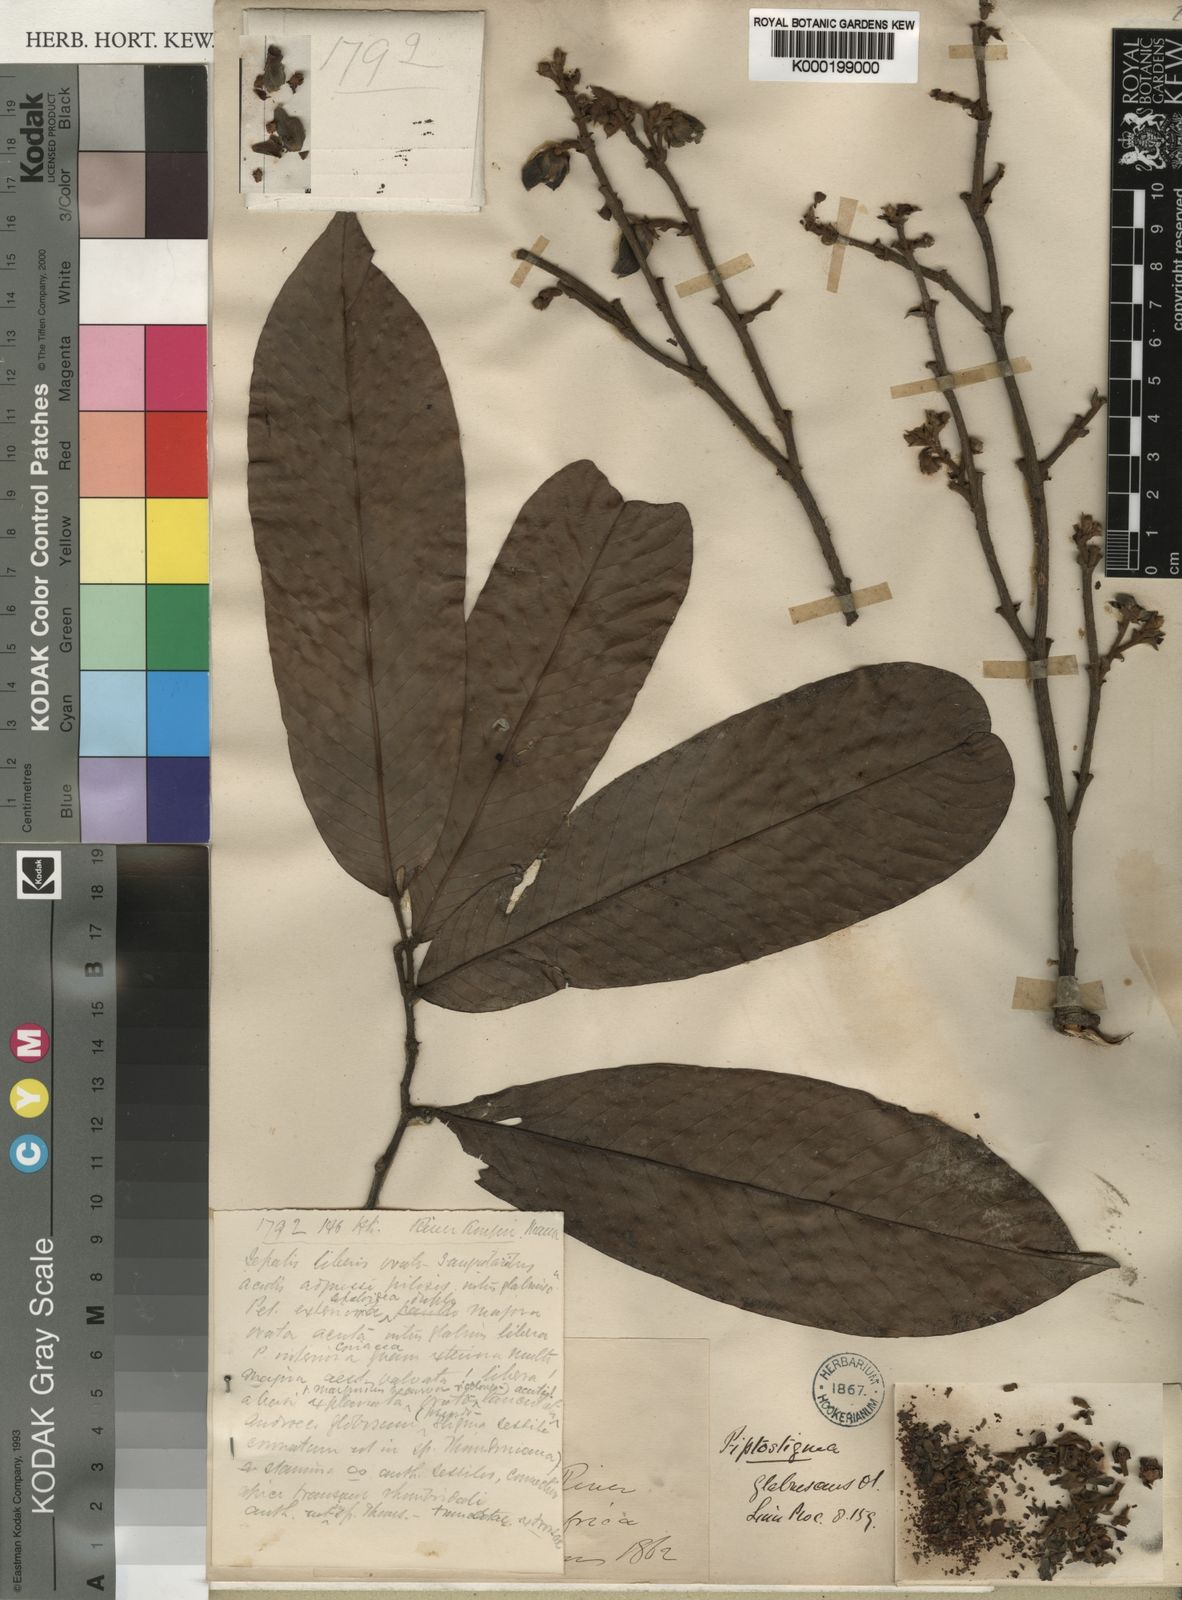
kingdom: Plantae
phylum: Tracheophyta
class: Magnoliopsida
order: Magnoliales
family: Annonaceae
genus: Piptostigma
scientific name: Piptostigma glabrescens
